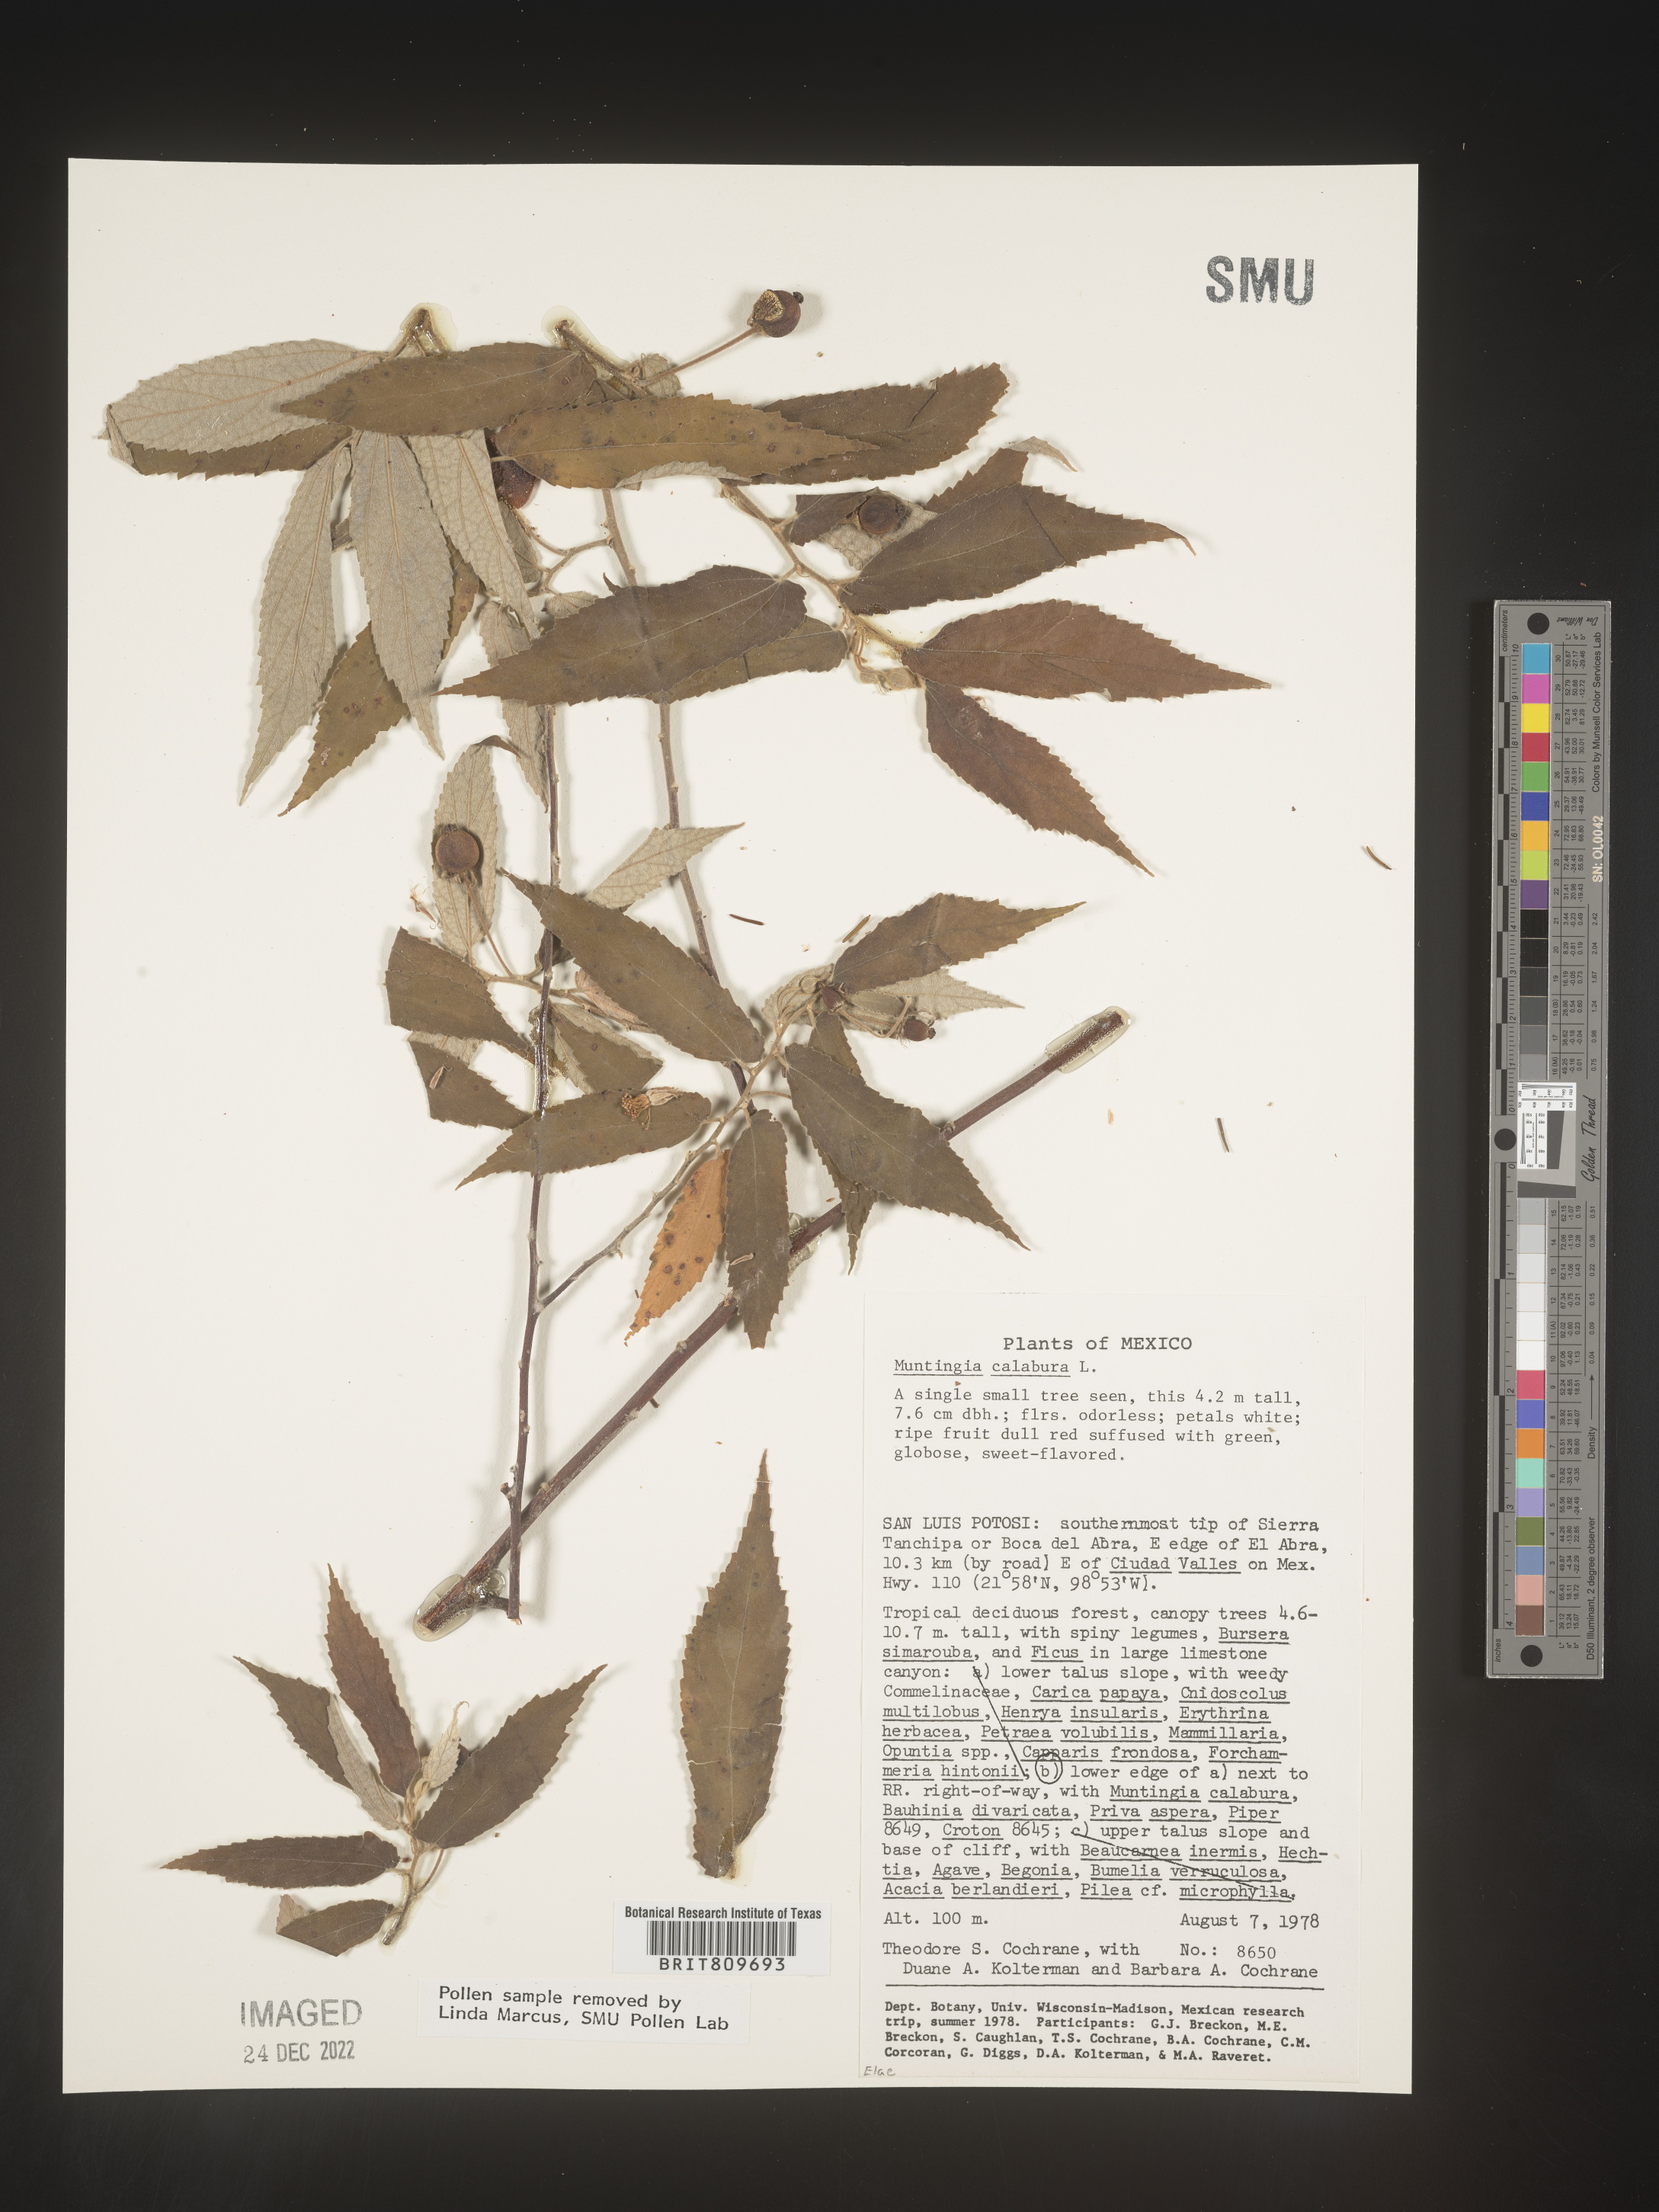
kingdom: Plantae
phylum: Tracheophyta
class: Magnoliopsida
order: Rosales
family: Elaeagnaceae
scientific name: Elaeagnaceae
